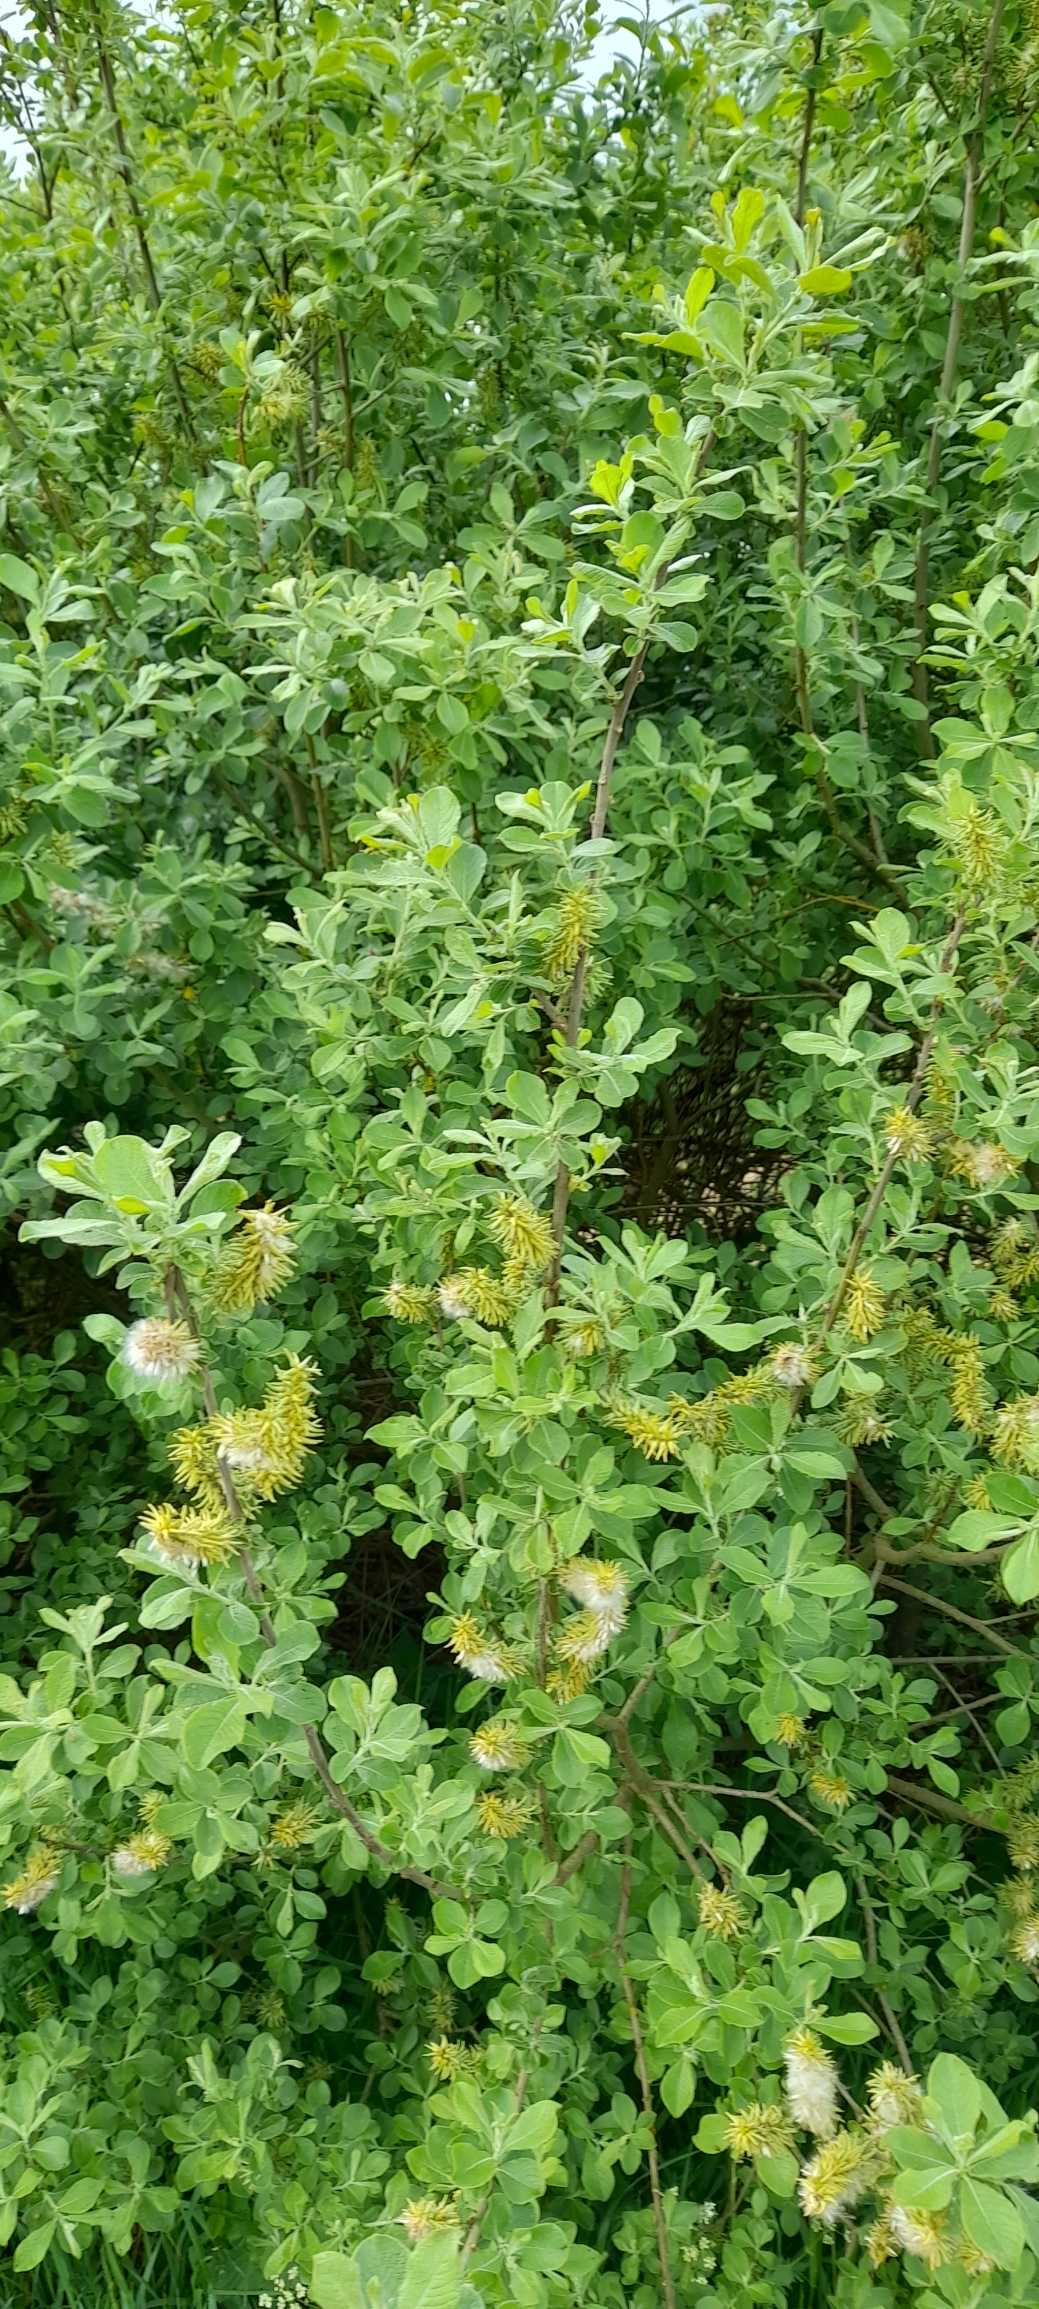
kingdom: Plantae
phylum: Tracheophyta
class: Magnoliopsida
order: Malpighiales
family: Salicaceae
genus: Salix
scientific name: Salix cinerea
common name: Grå-pil
